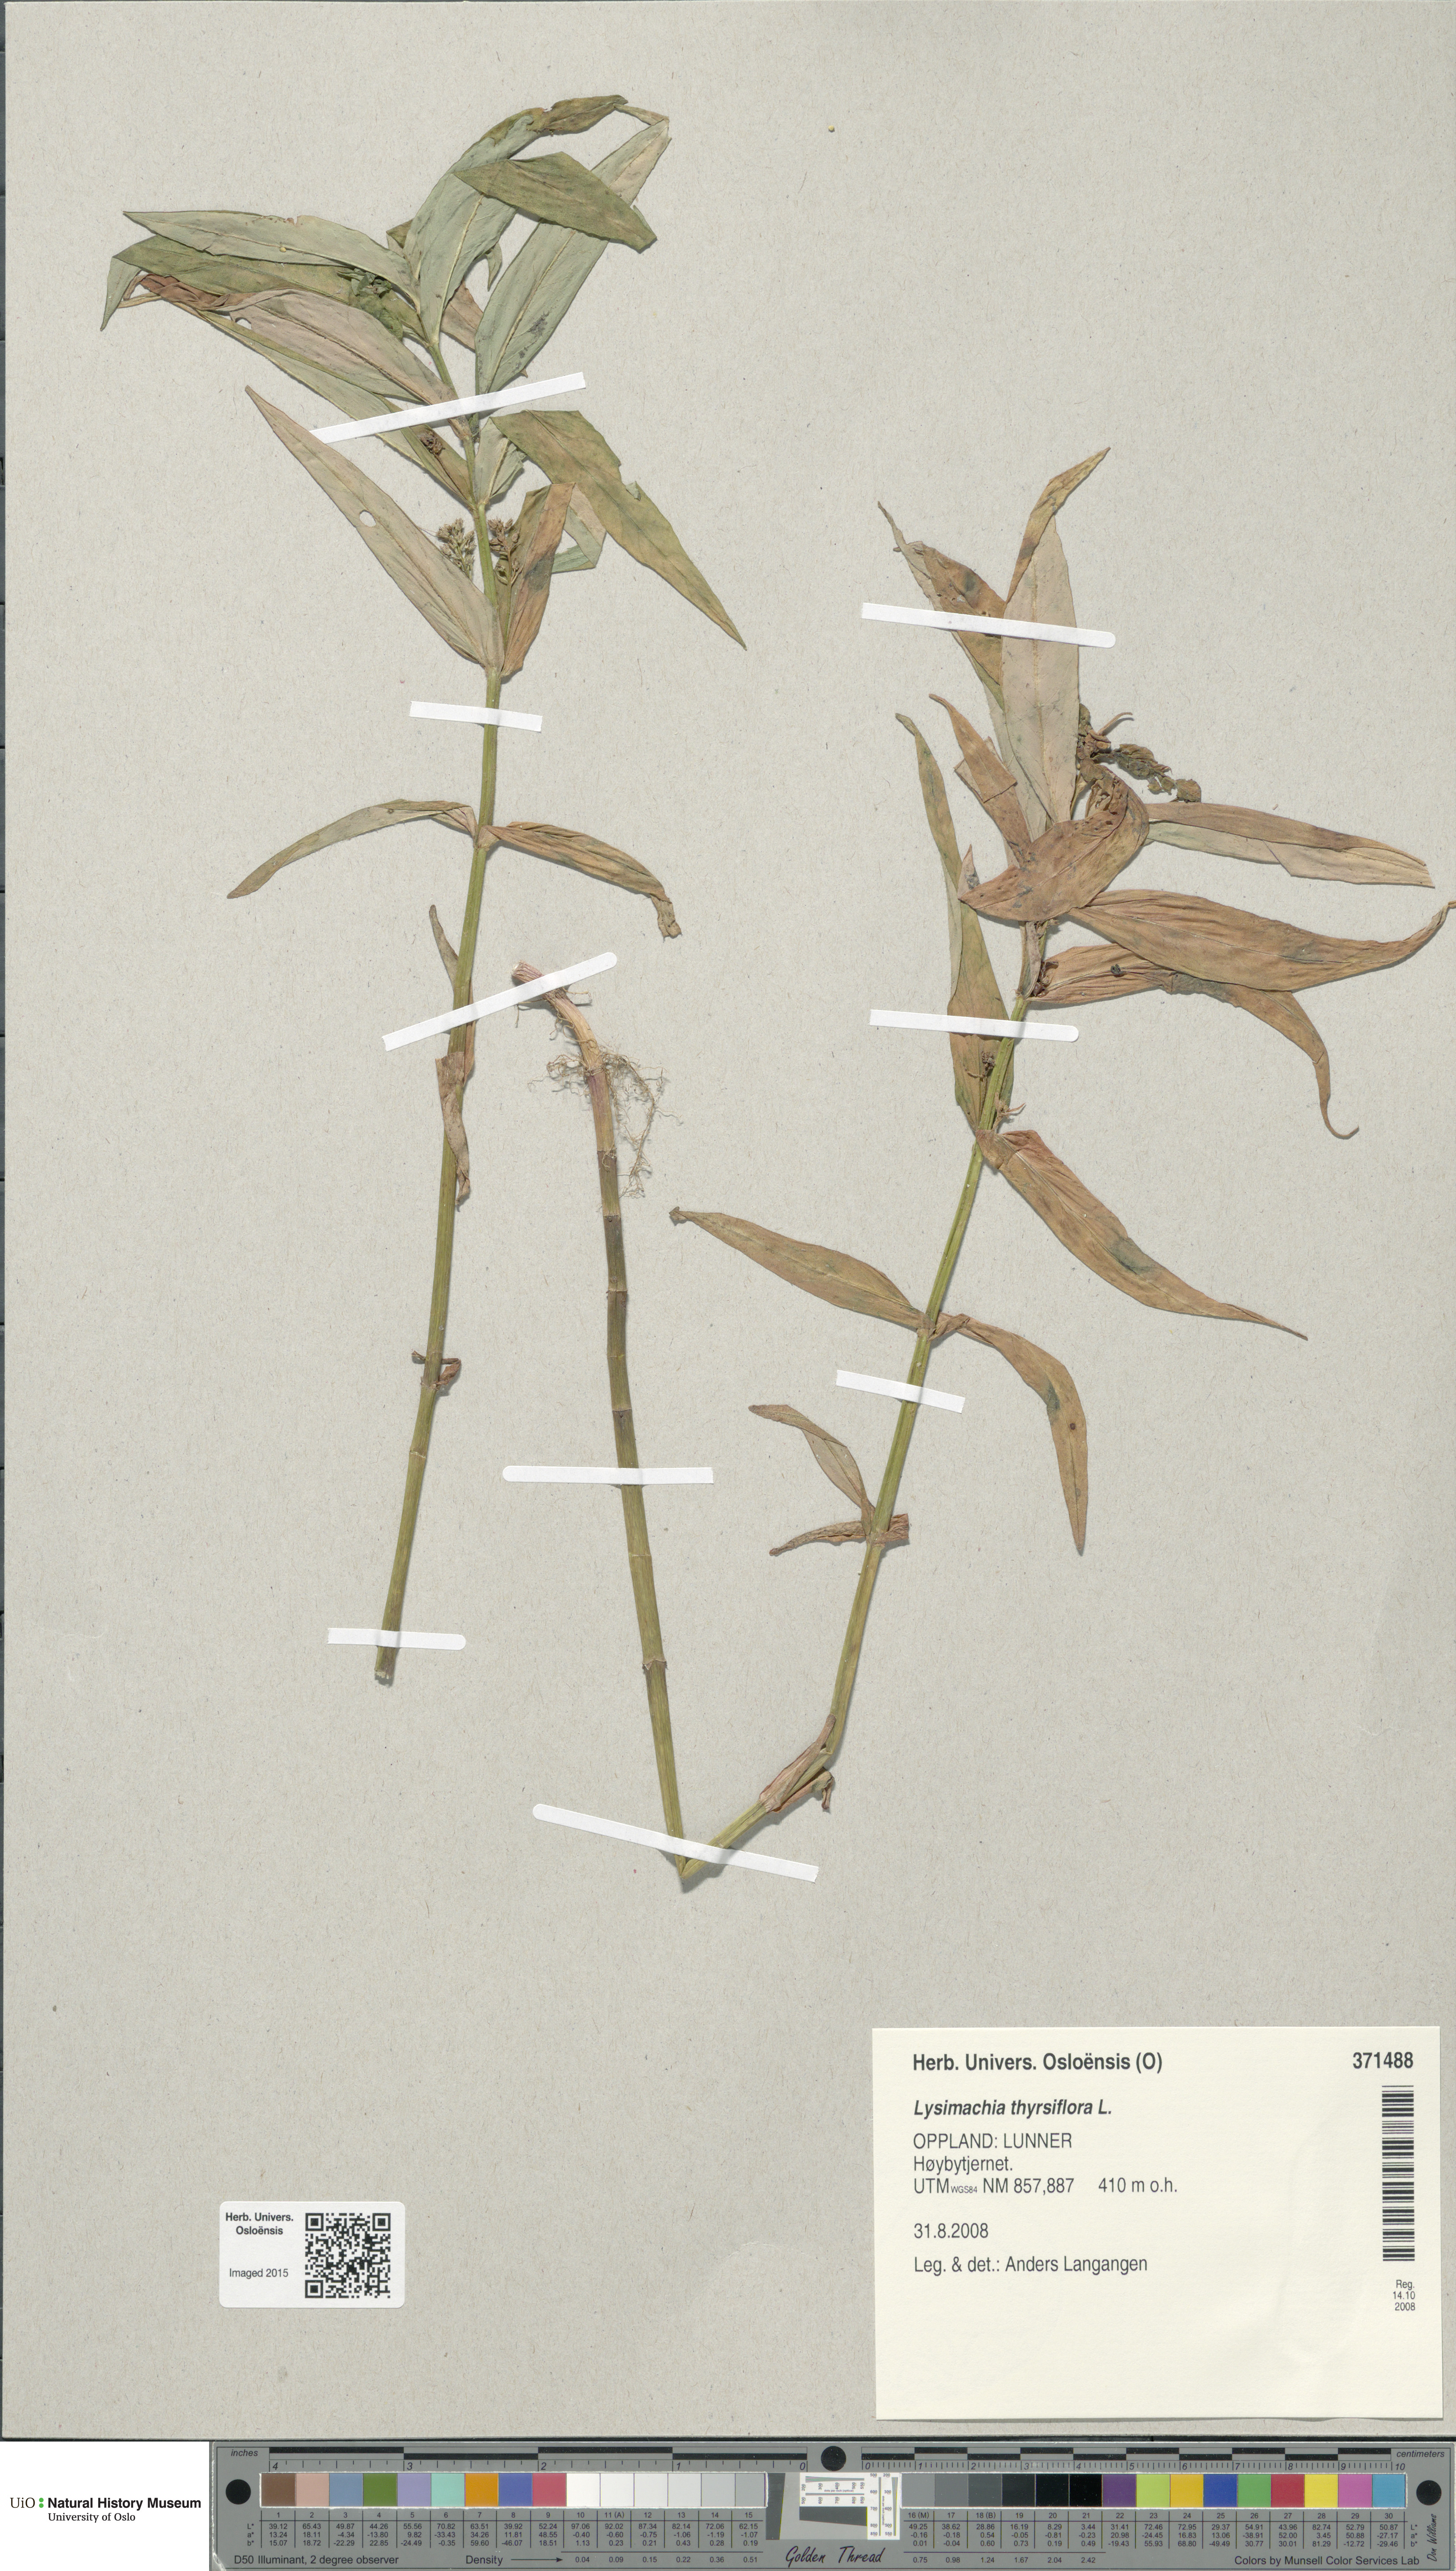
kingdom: Plantae
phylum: Tracheophyta
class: Magnoliopsida
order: Ericales
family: Primulaceae
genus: Lysimachia
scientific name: Lysimachia thyrsiflora
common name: Tufted loosestrife
